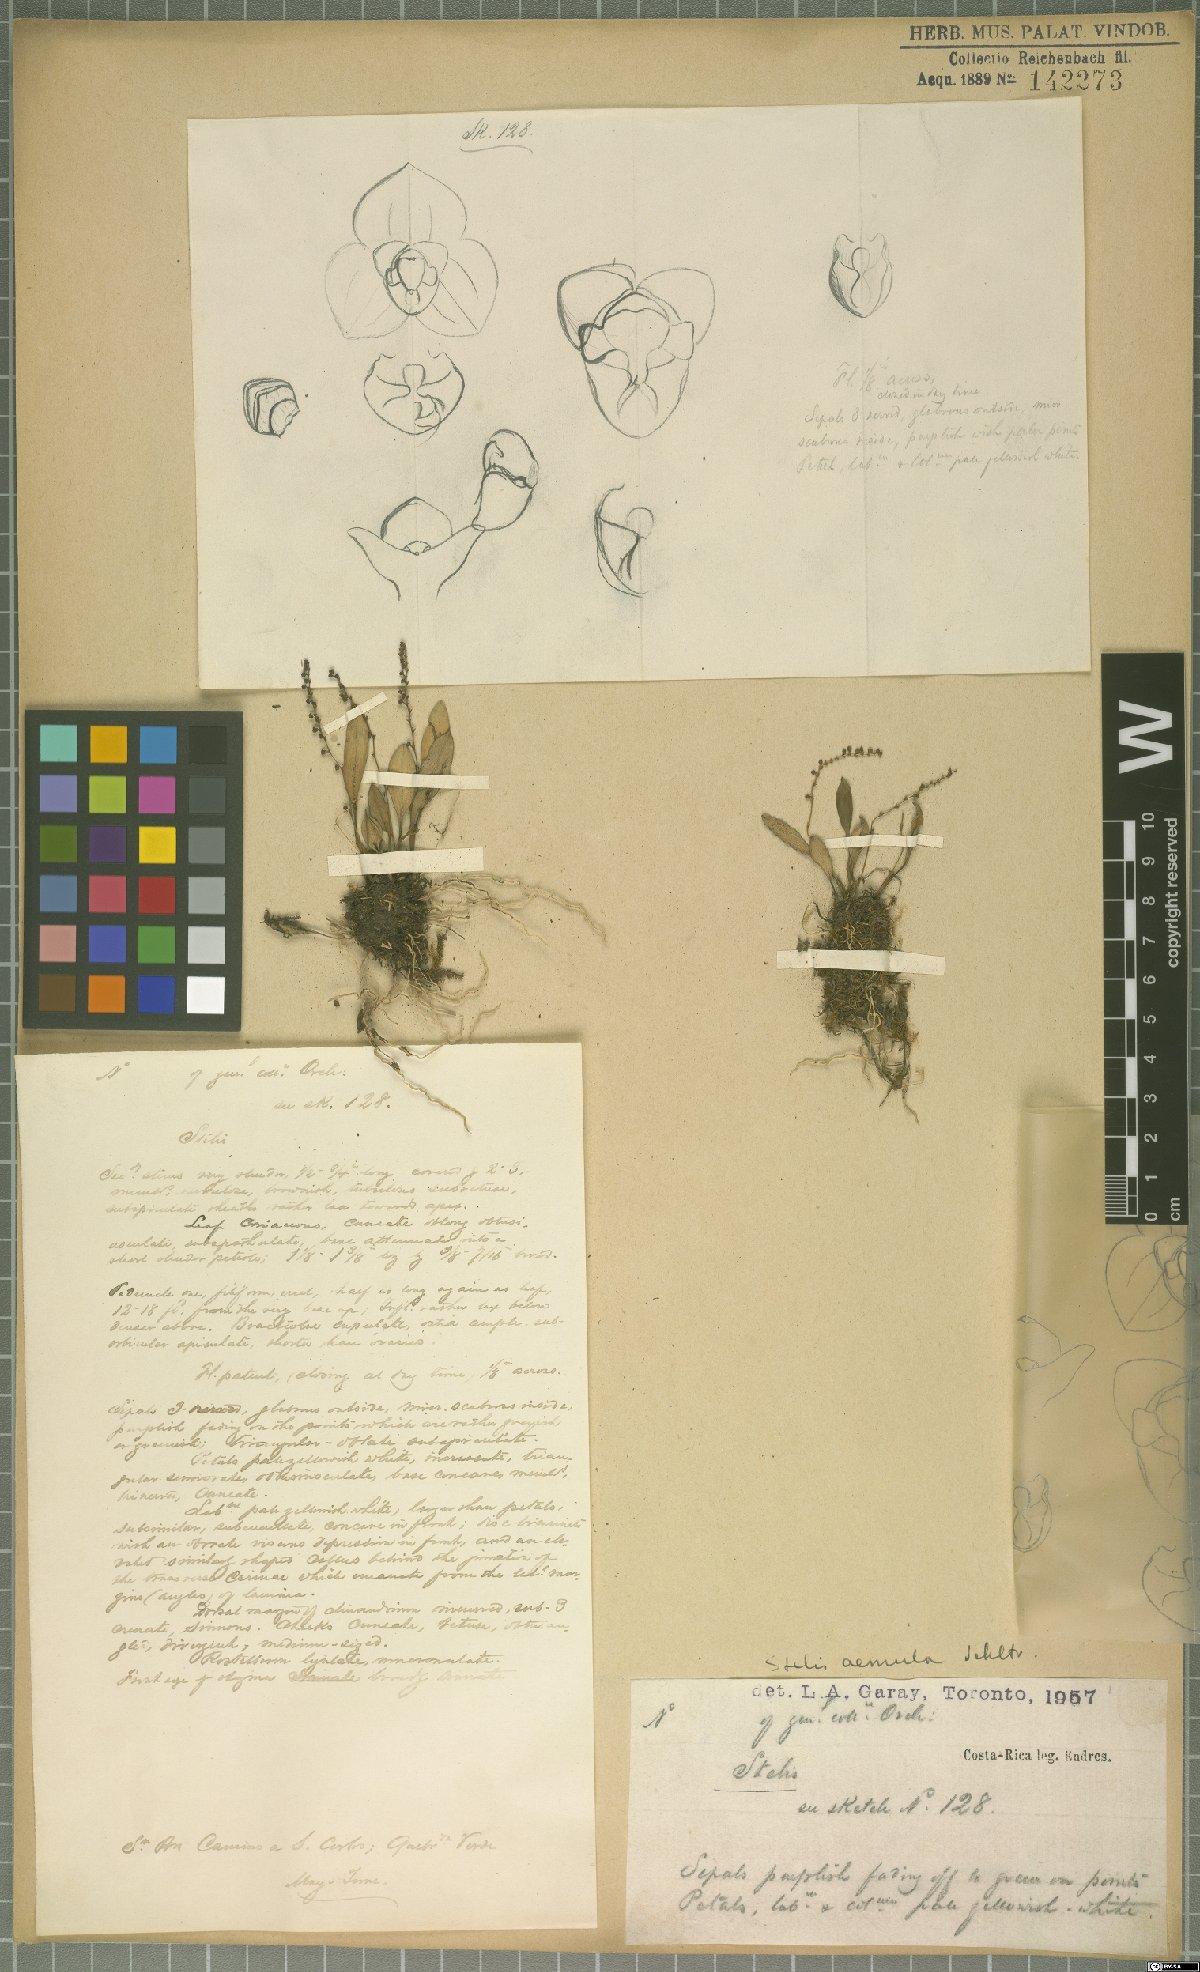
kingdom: Plantae
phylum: Tracheophyta
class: Liliopsida
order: Asparagales
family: Orchidaceae
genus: Stelis
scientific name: Stelis aemula
